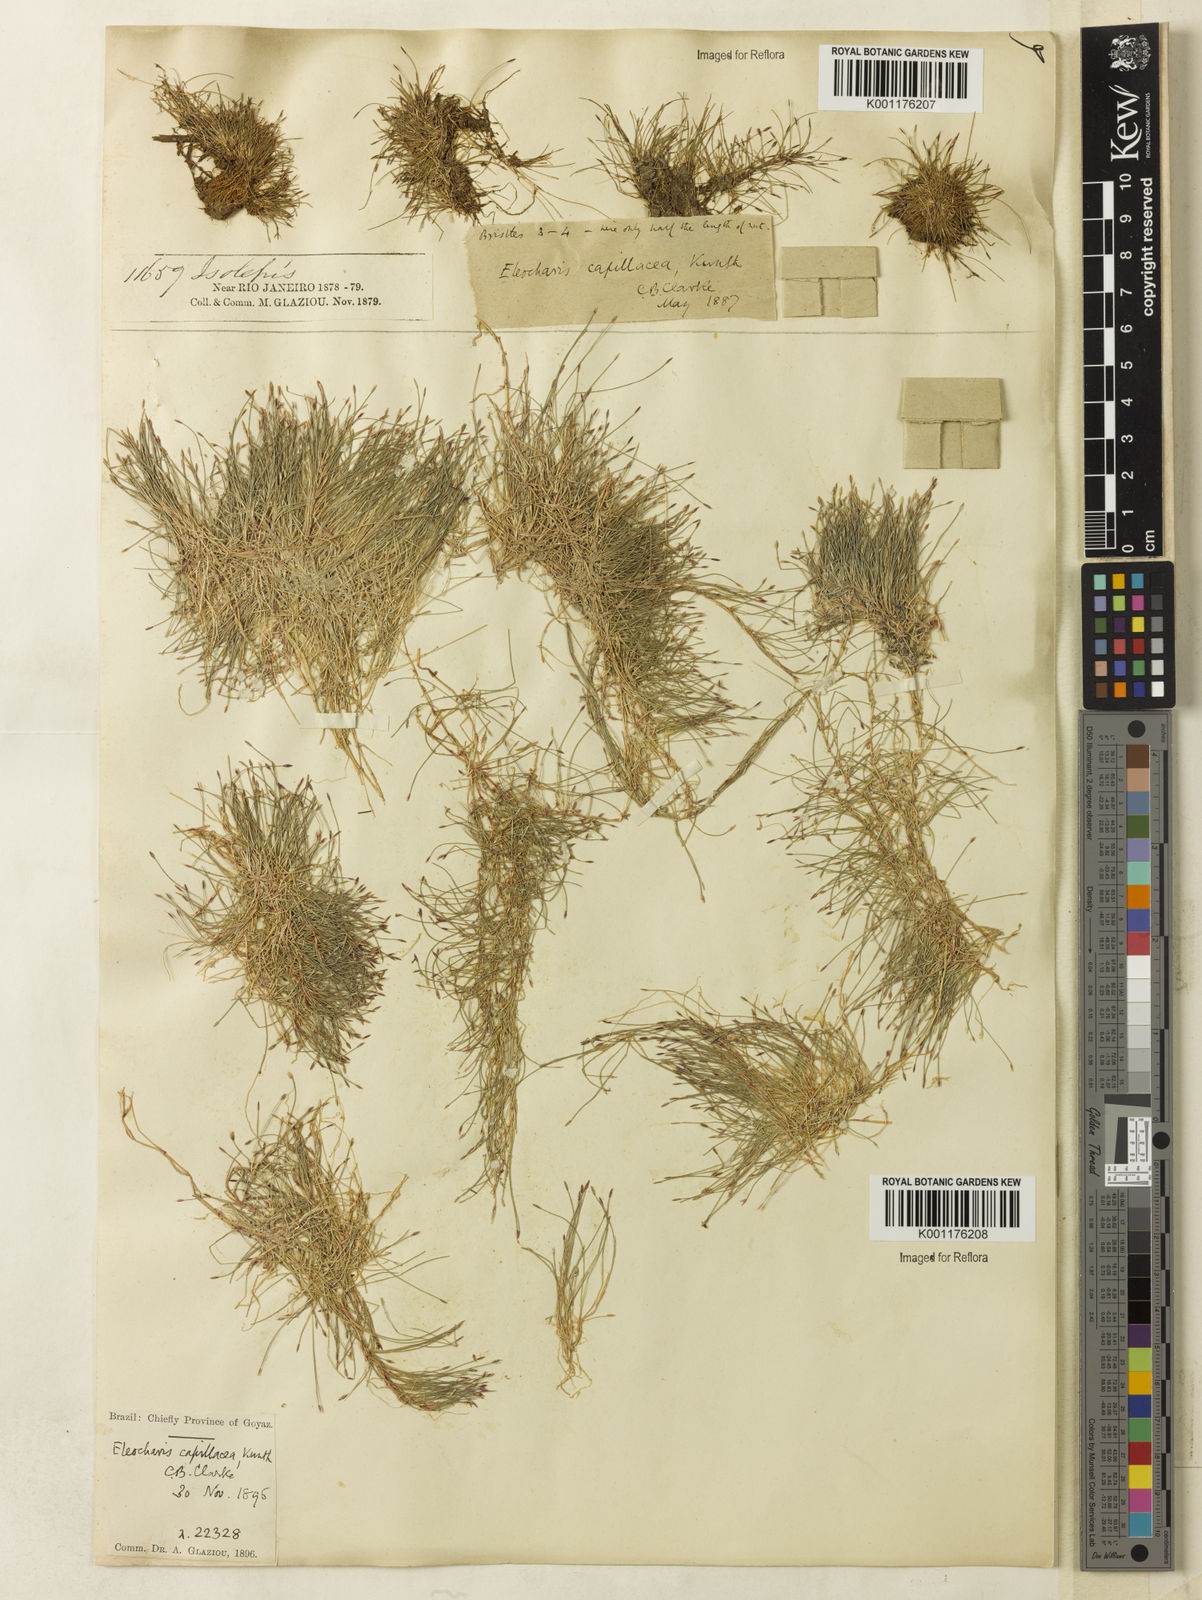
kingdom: Plantae
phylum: Tracheophyta
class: Liliopsida
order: Poales
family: Cyperaceae
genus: Eleocharis
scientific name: Eleocharis capillacea
